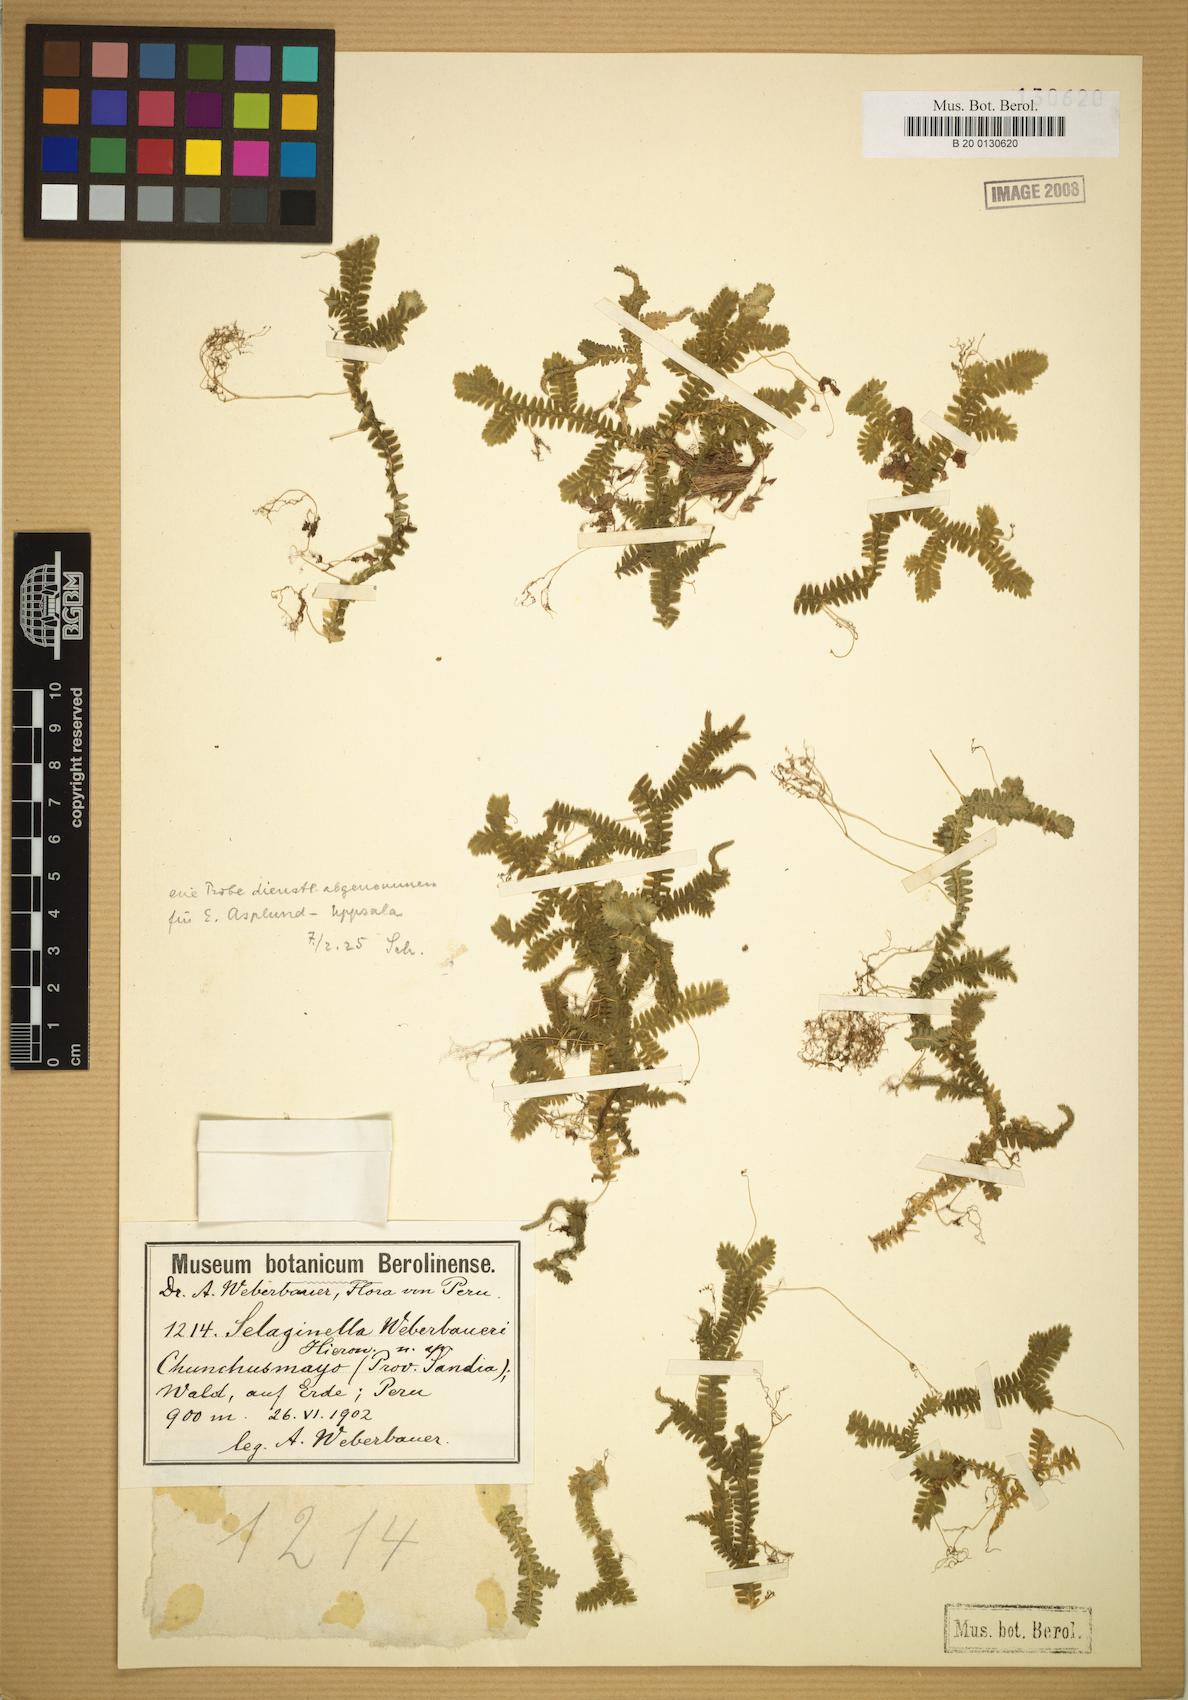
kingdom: Plantae
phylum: Tracheophyta
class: Lycopodiopsida
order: Selaginellales
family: Selaginellaceae
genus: Selaginella
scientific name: Selaginella truncata
